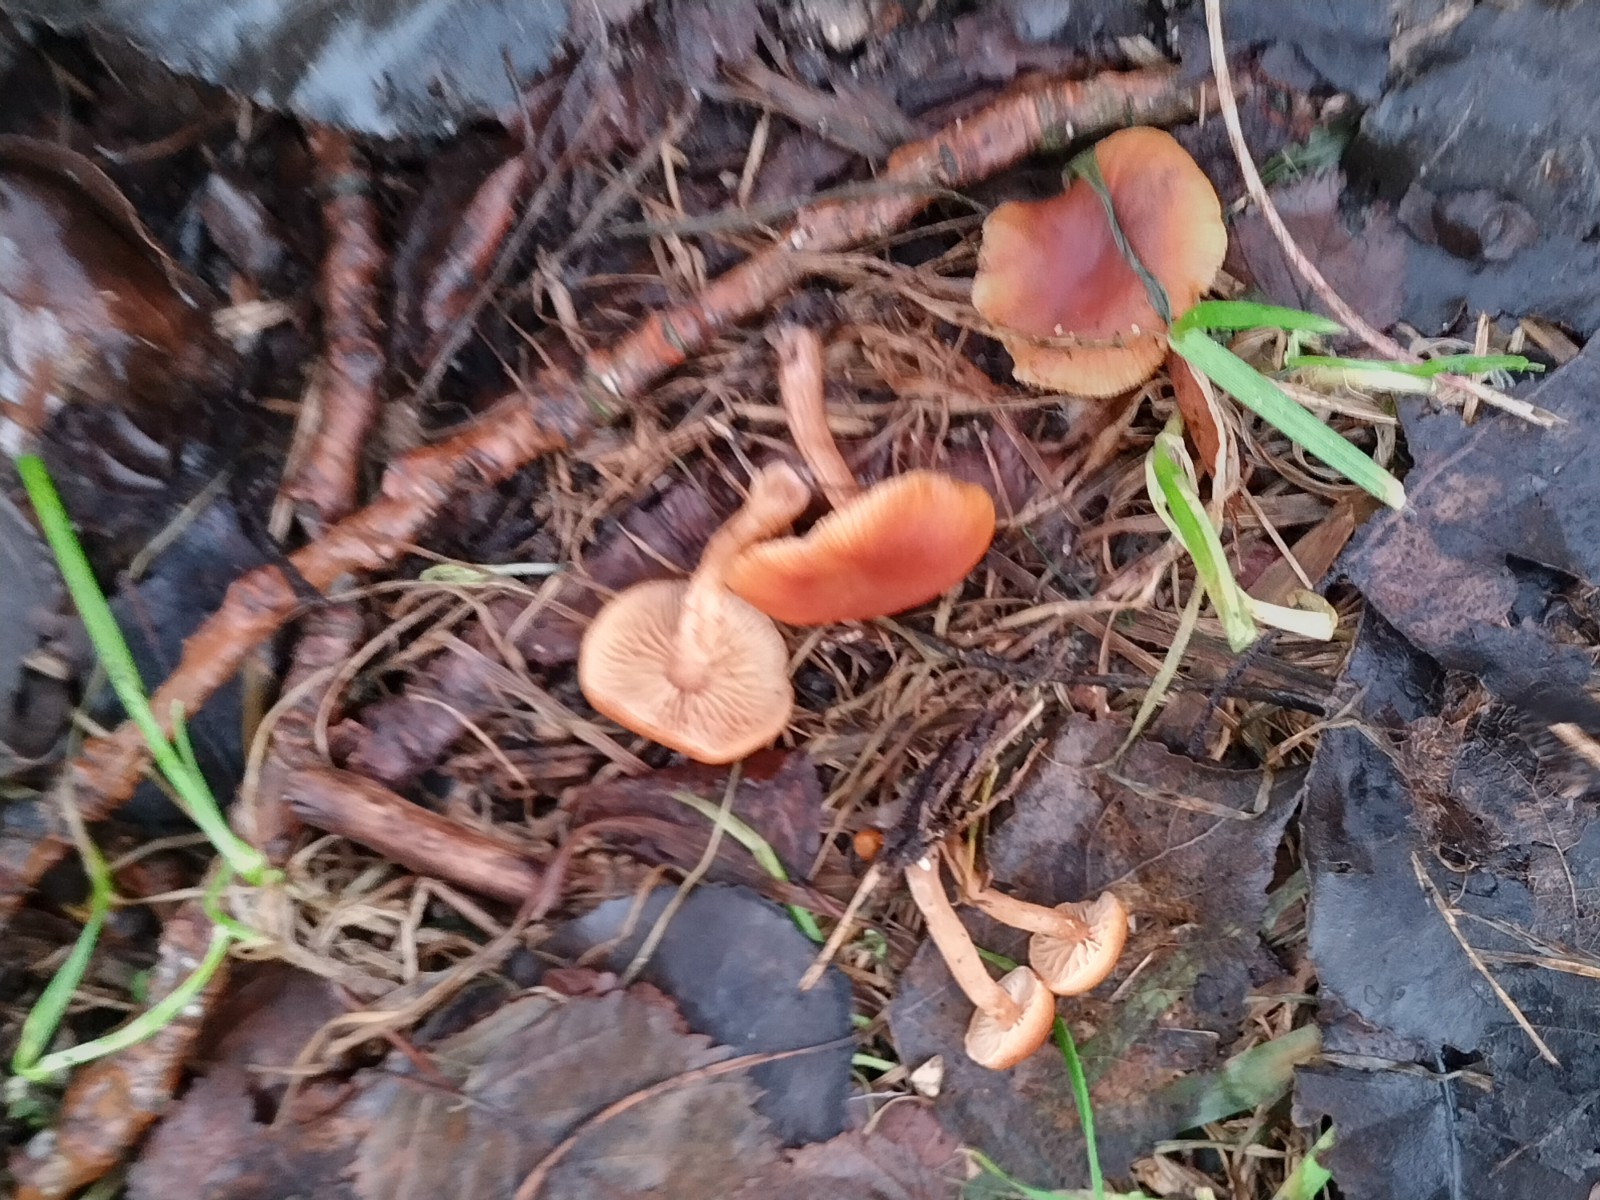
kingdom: Fungi
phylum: Basidiomycota
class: Agaricomycetes
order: Agaricales
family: Tubariaceae
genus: Tubaria
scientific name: Tubaria furfuracea
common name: kliddet fnughat
